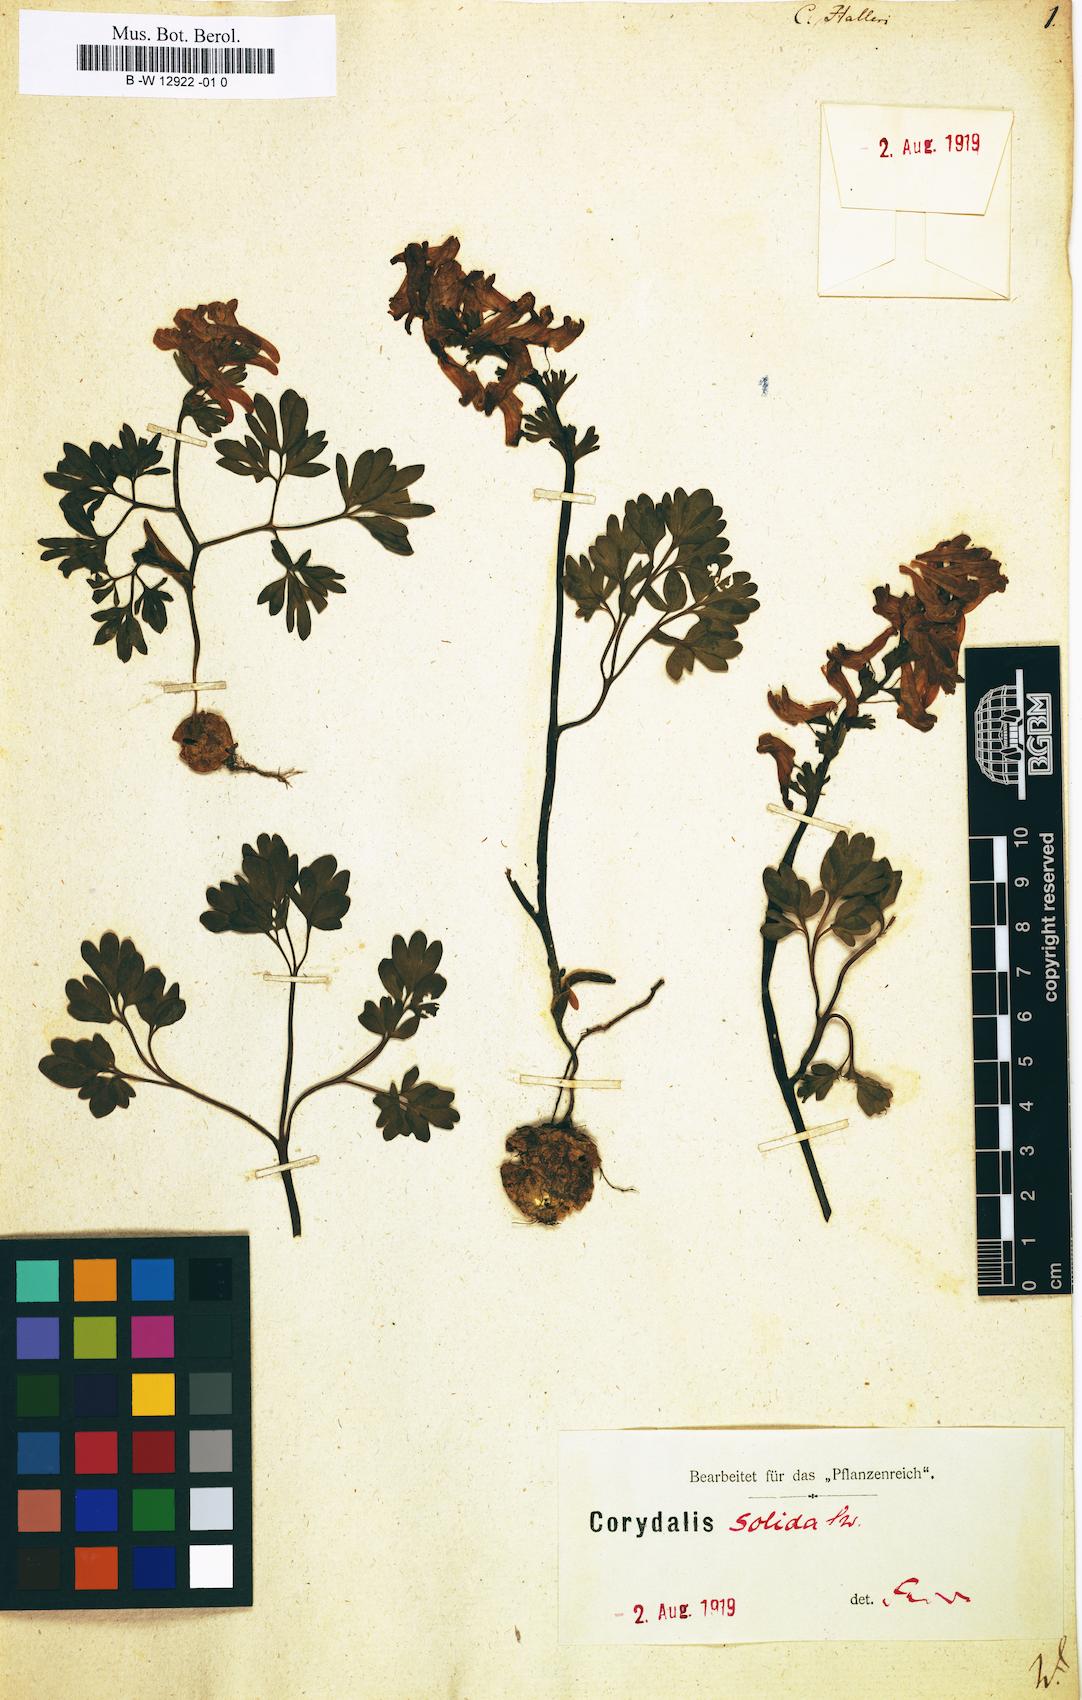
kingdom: Plantae
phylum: Tracheophyta
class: Magnoliopsida
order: Ranunculales
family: Papaveraceae
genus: Corydalis
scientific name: Corydalis solida
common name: Bird-in-a-bush
